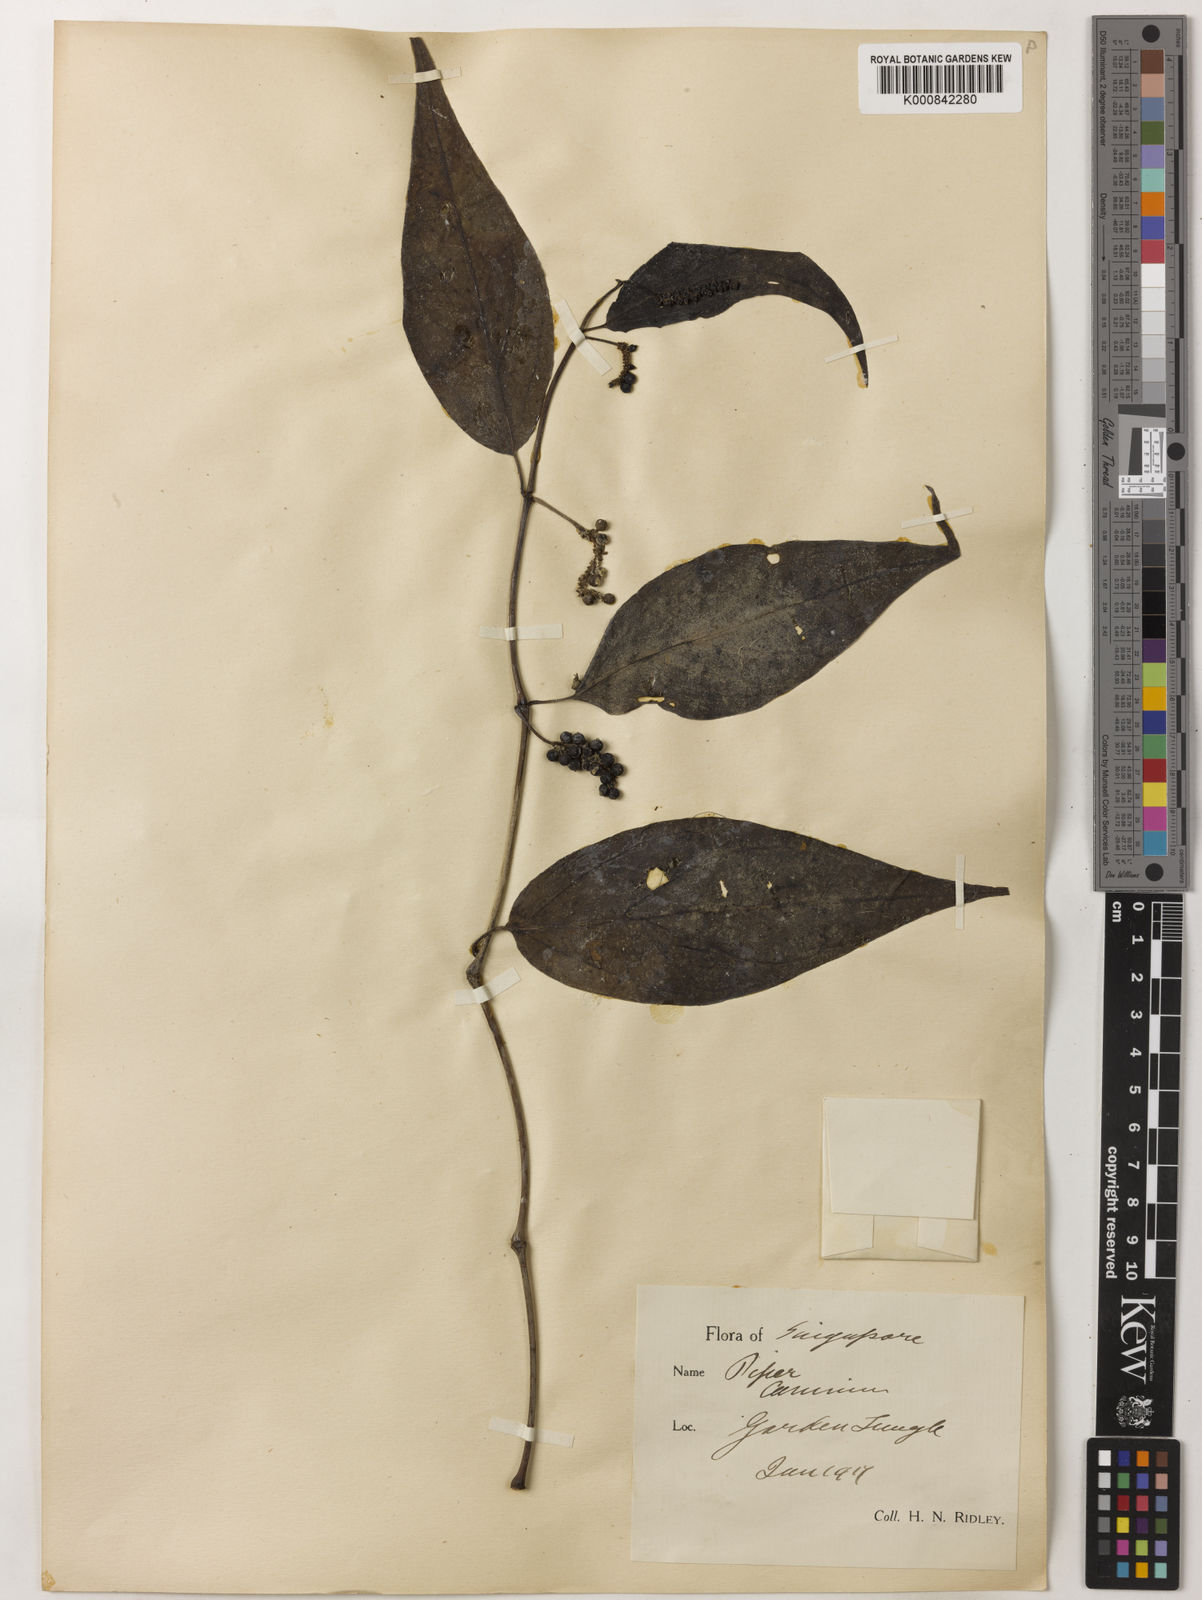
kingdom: Plantae
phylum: Tracheophyta
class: Magnoliopsida
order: Piperales
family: Piperaceae
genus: Piper
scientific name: Piper lanatum
